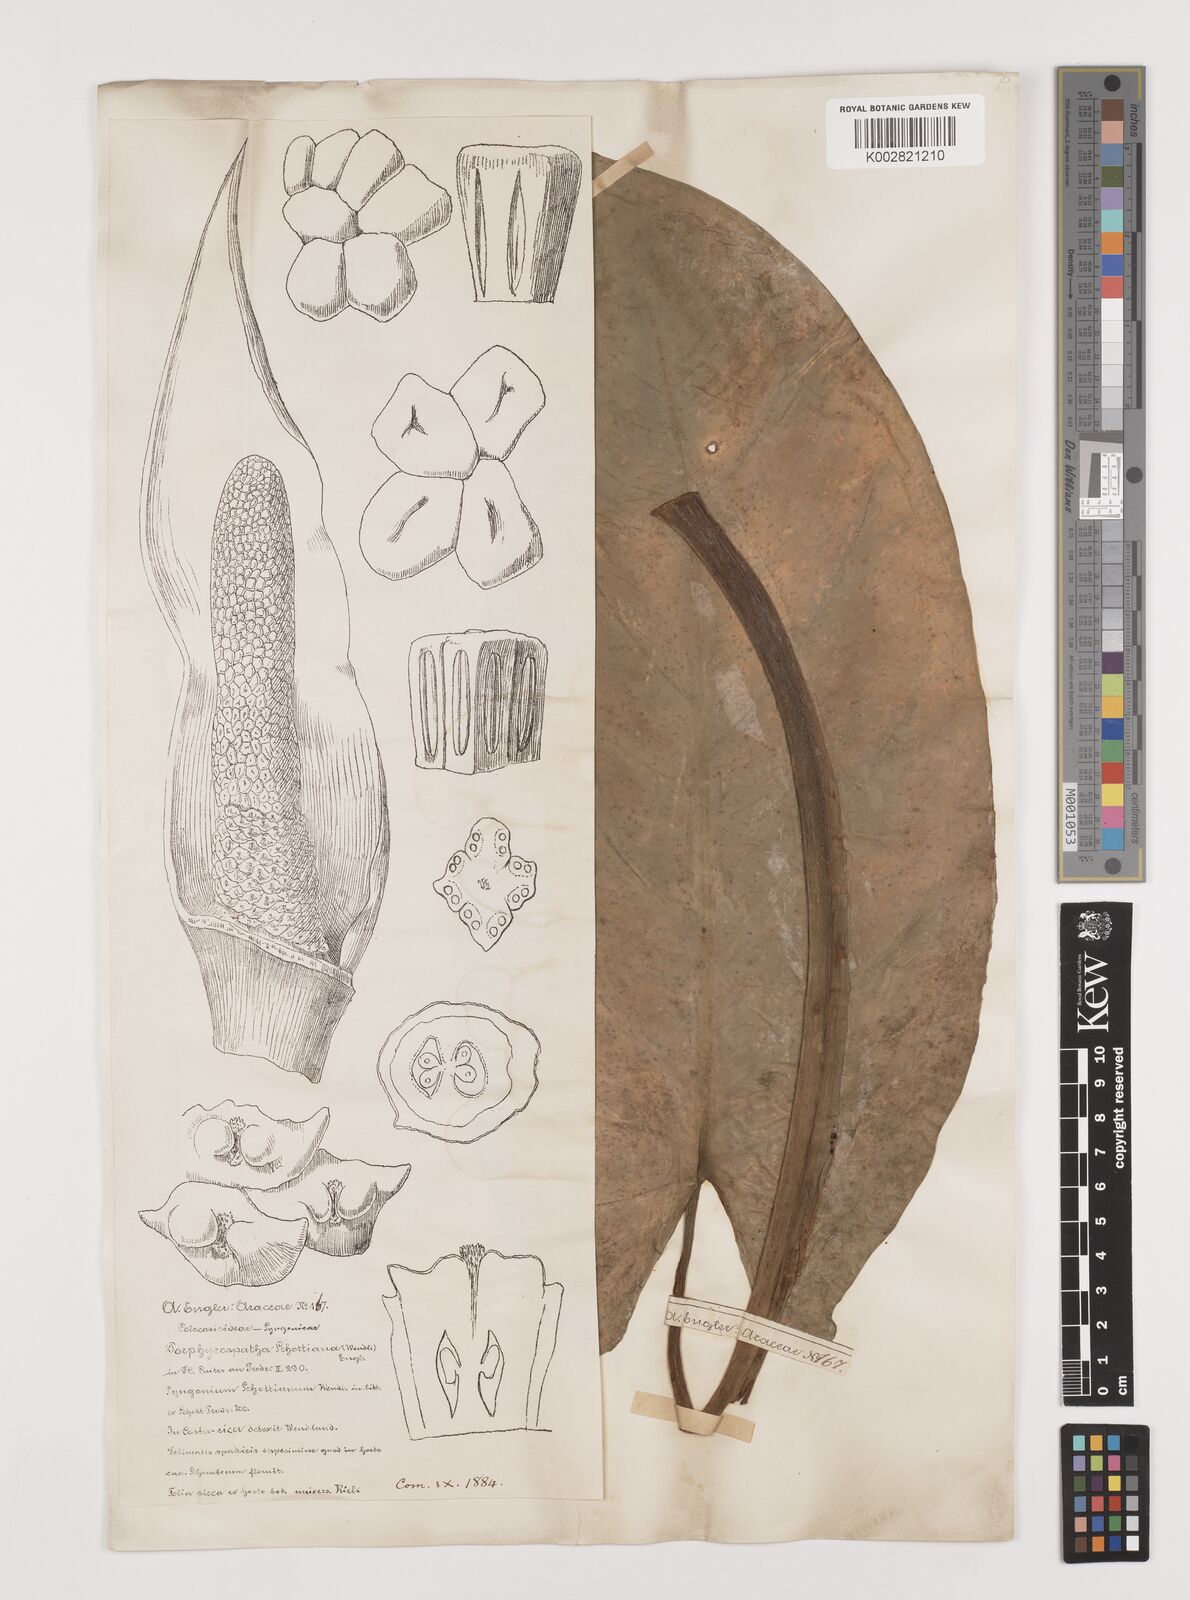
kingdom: Plantae
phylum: Tracheophyta
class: Liliopsida
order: Alismatales
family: Araceae
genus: Syngonium
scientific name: Syngonium schottianum
